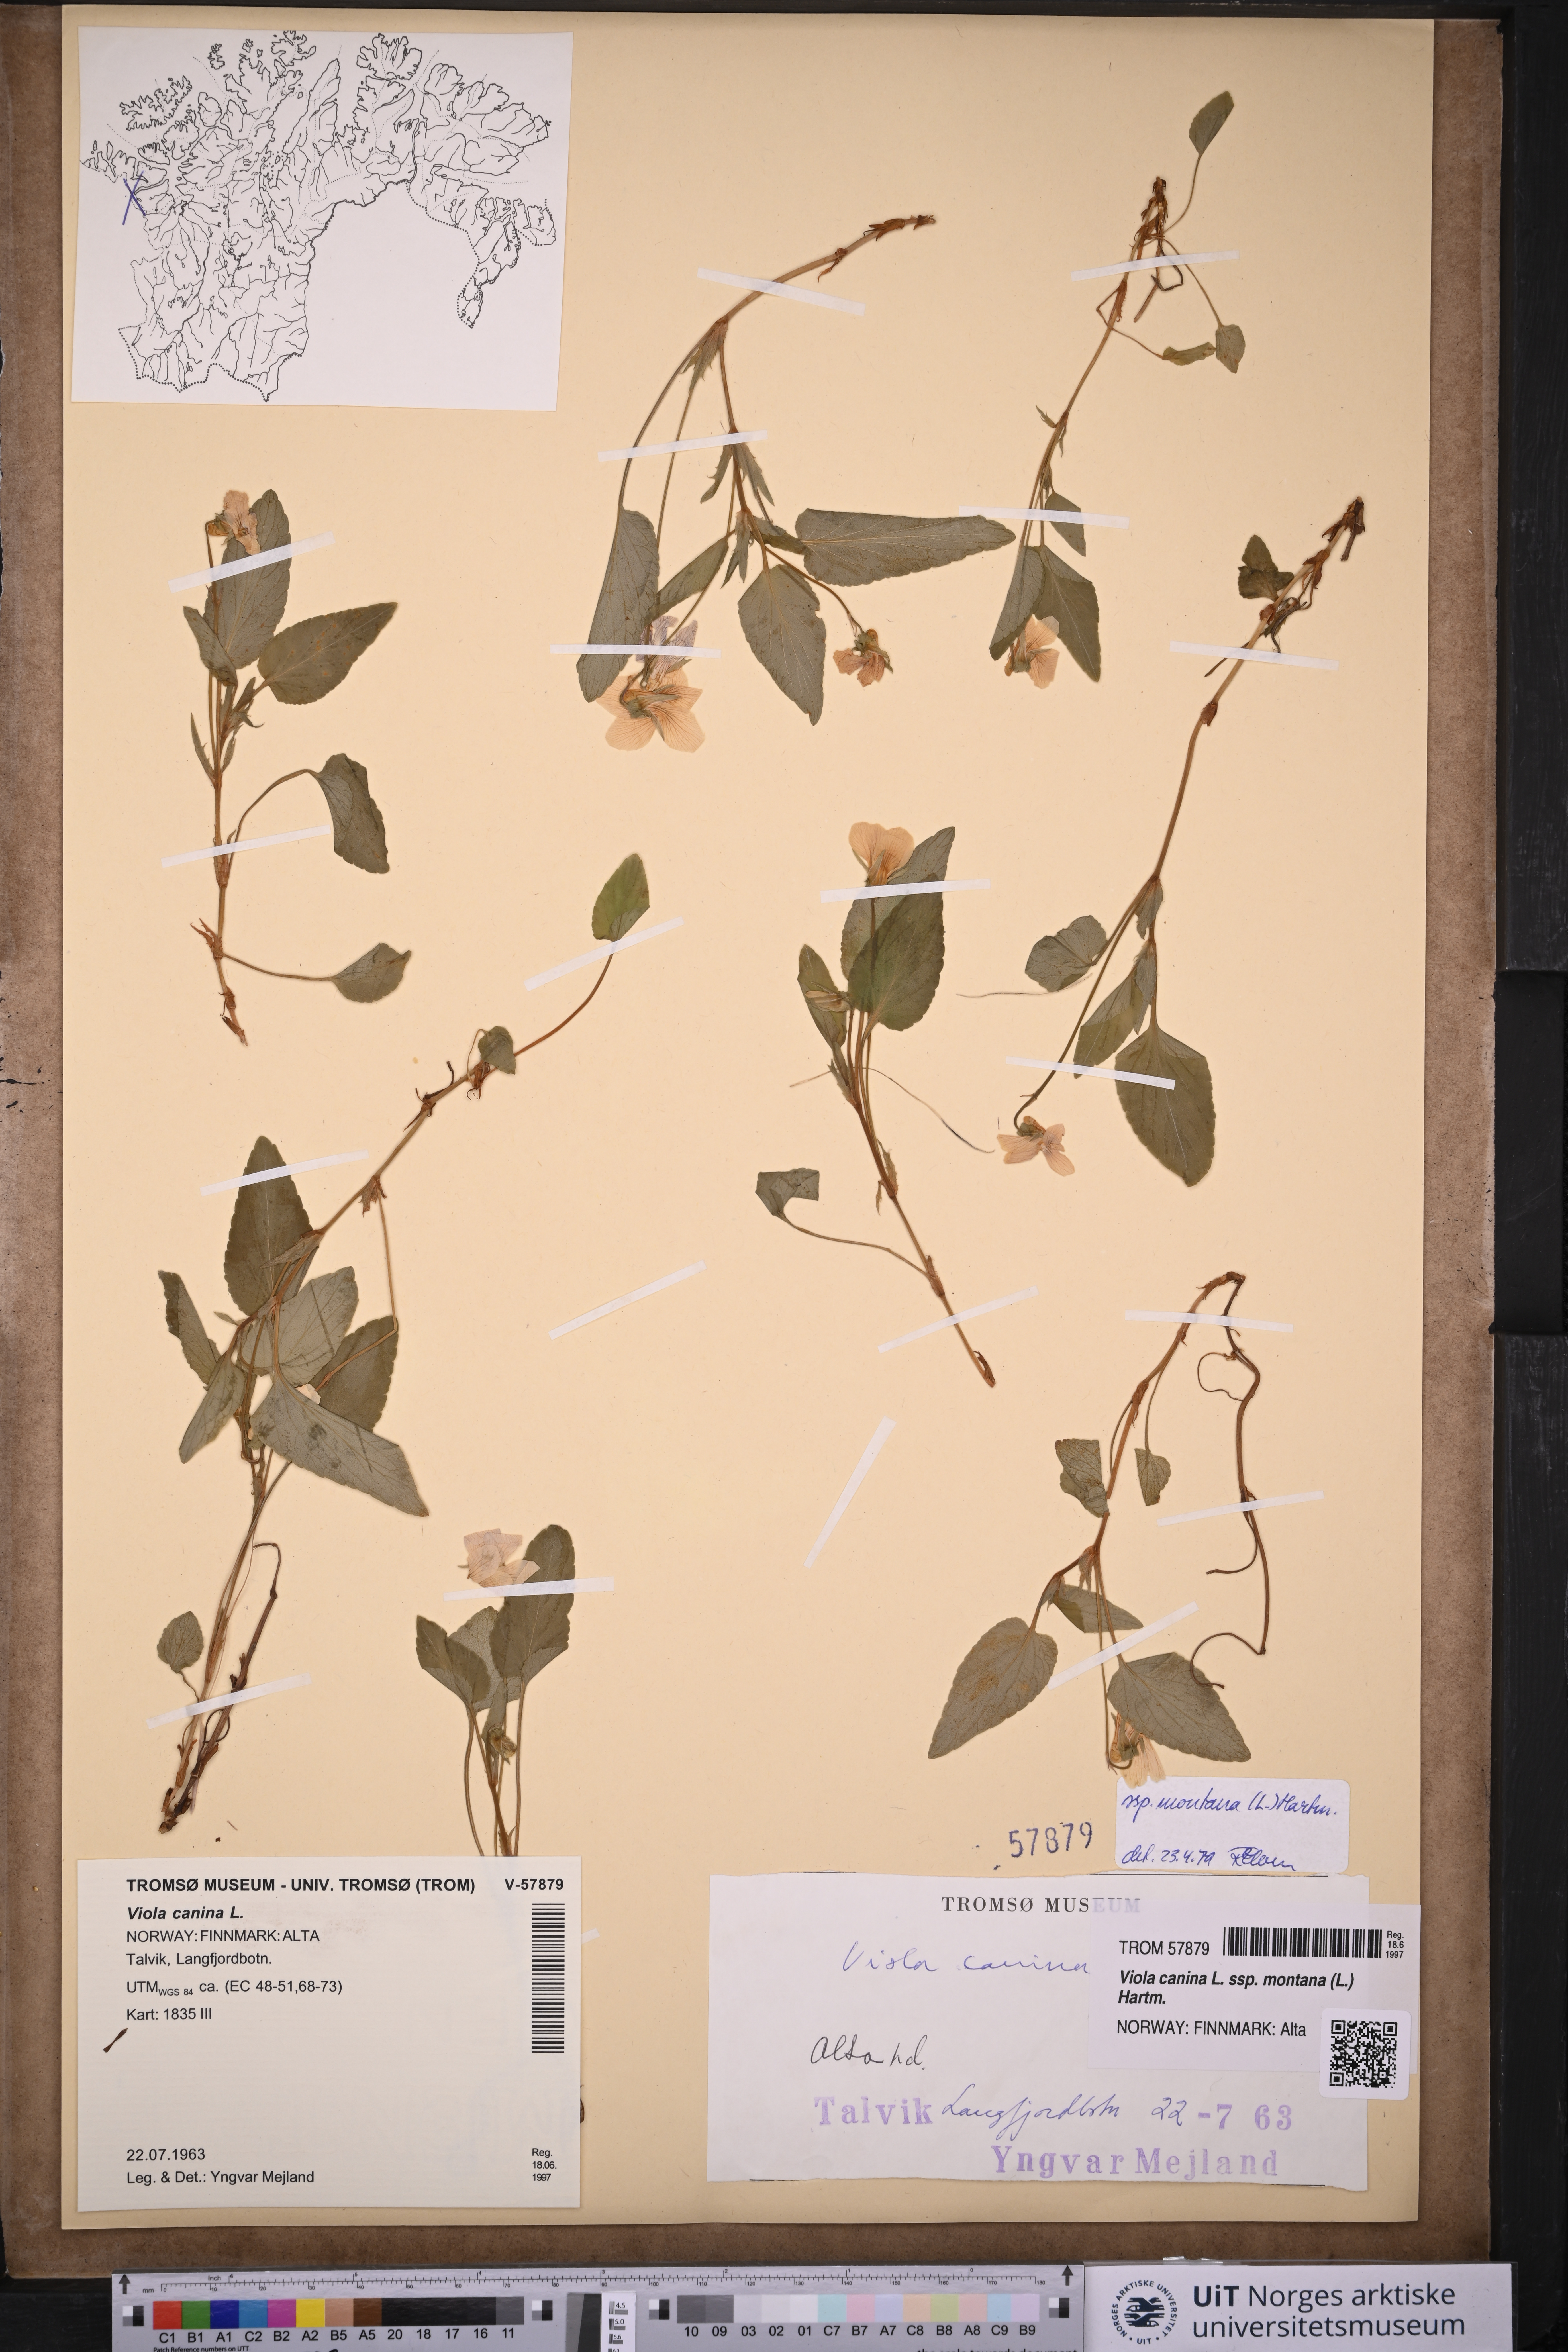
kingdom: Plantae
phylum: Tracheophyta
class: Magnoliopsida
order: Malpighiales
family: Violaceae
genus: Viola
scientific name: Viola ruppii
